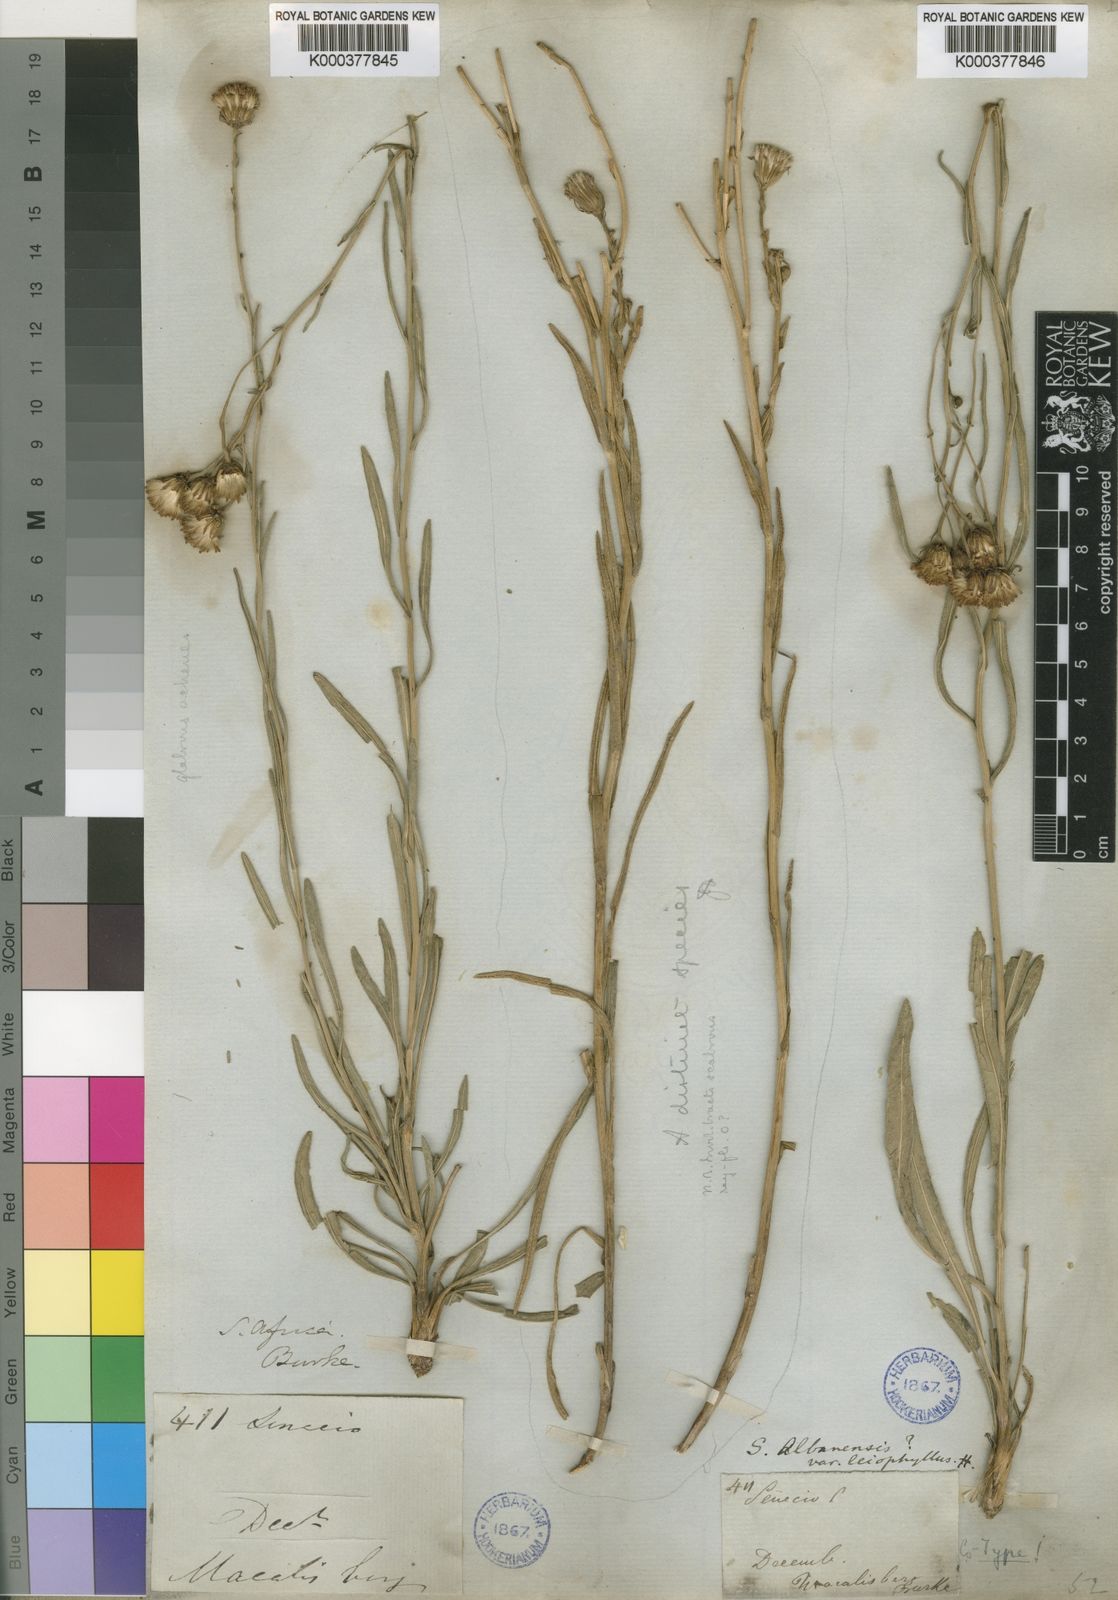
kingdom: Plantae
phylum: Tracheophyta
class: Magnoliopsida
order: Asterales
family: Asteraceae
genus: Senecio
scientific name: Senecio affinis
